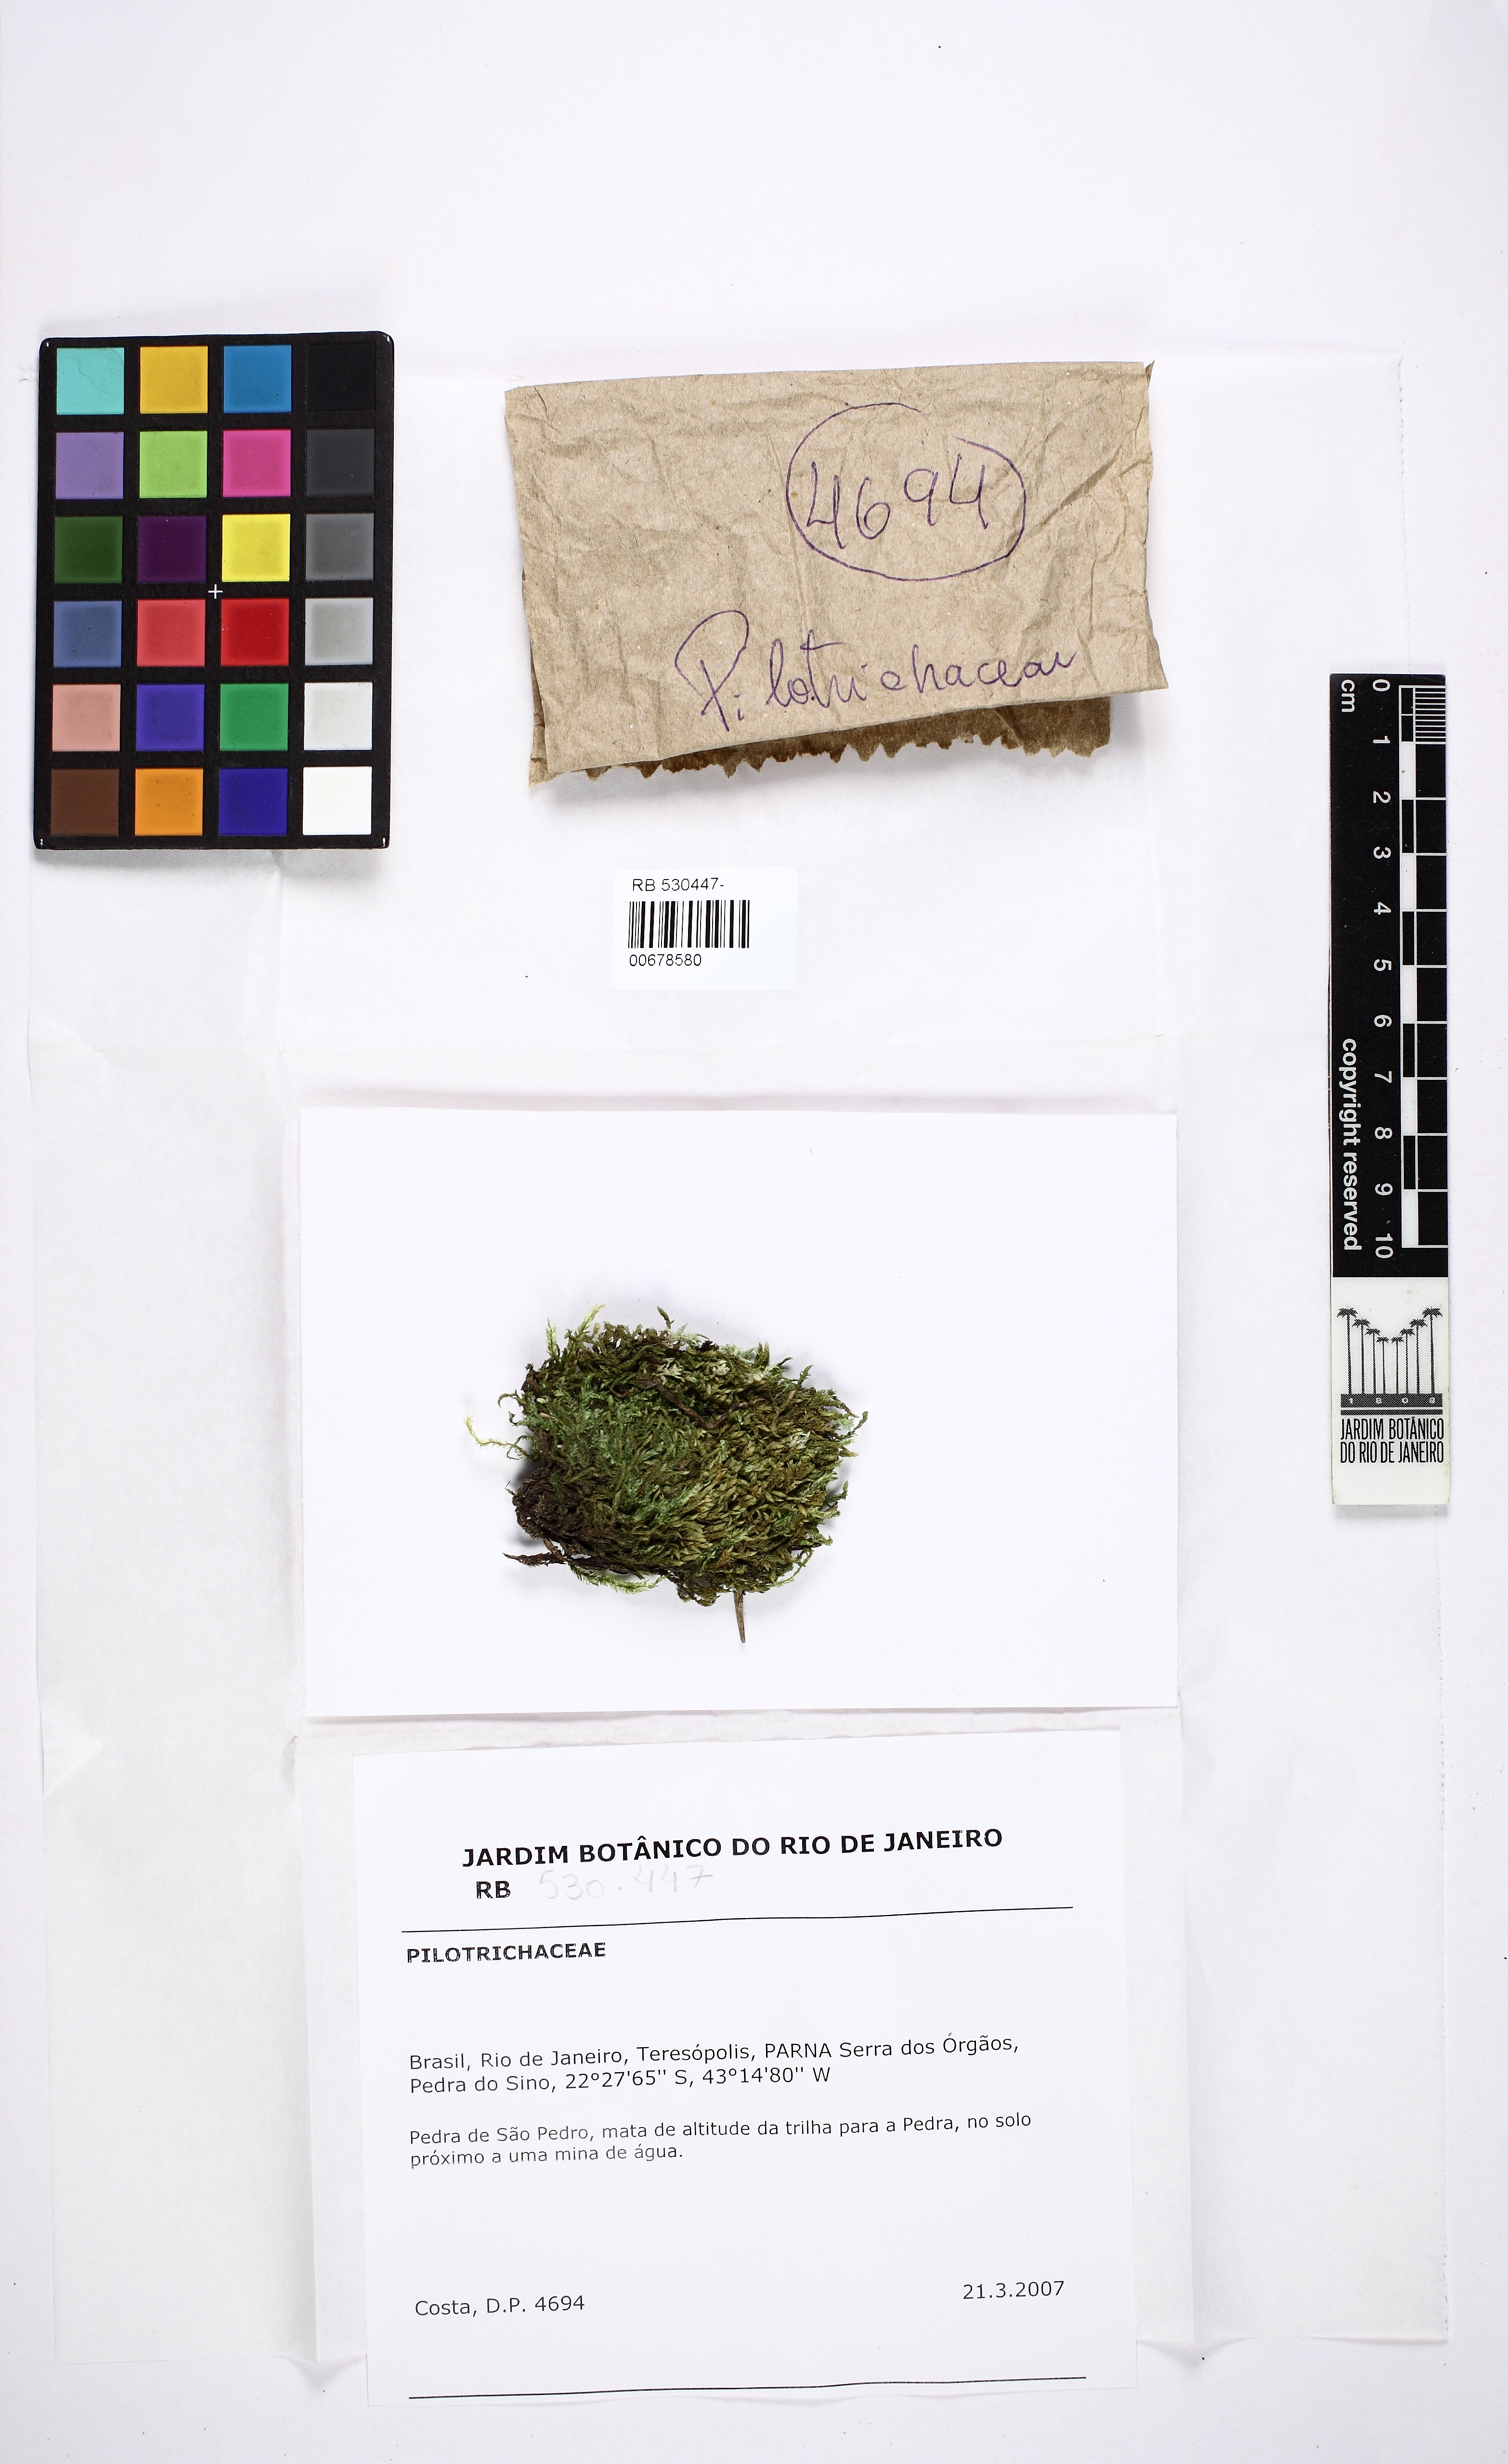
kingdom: Plantae
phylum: Bryophyta
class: Bryopsida
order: Hookeriales
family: Pilotrichaceae
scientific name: Pilotrichaceae
